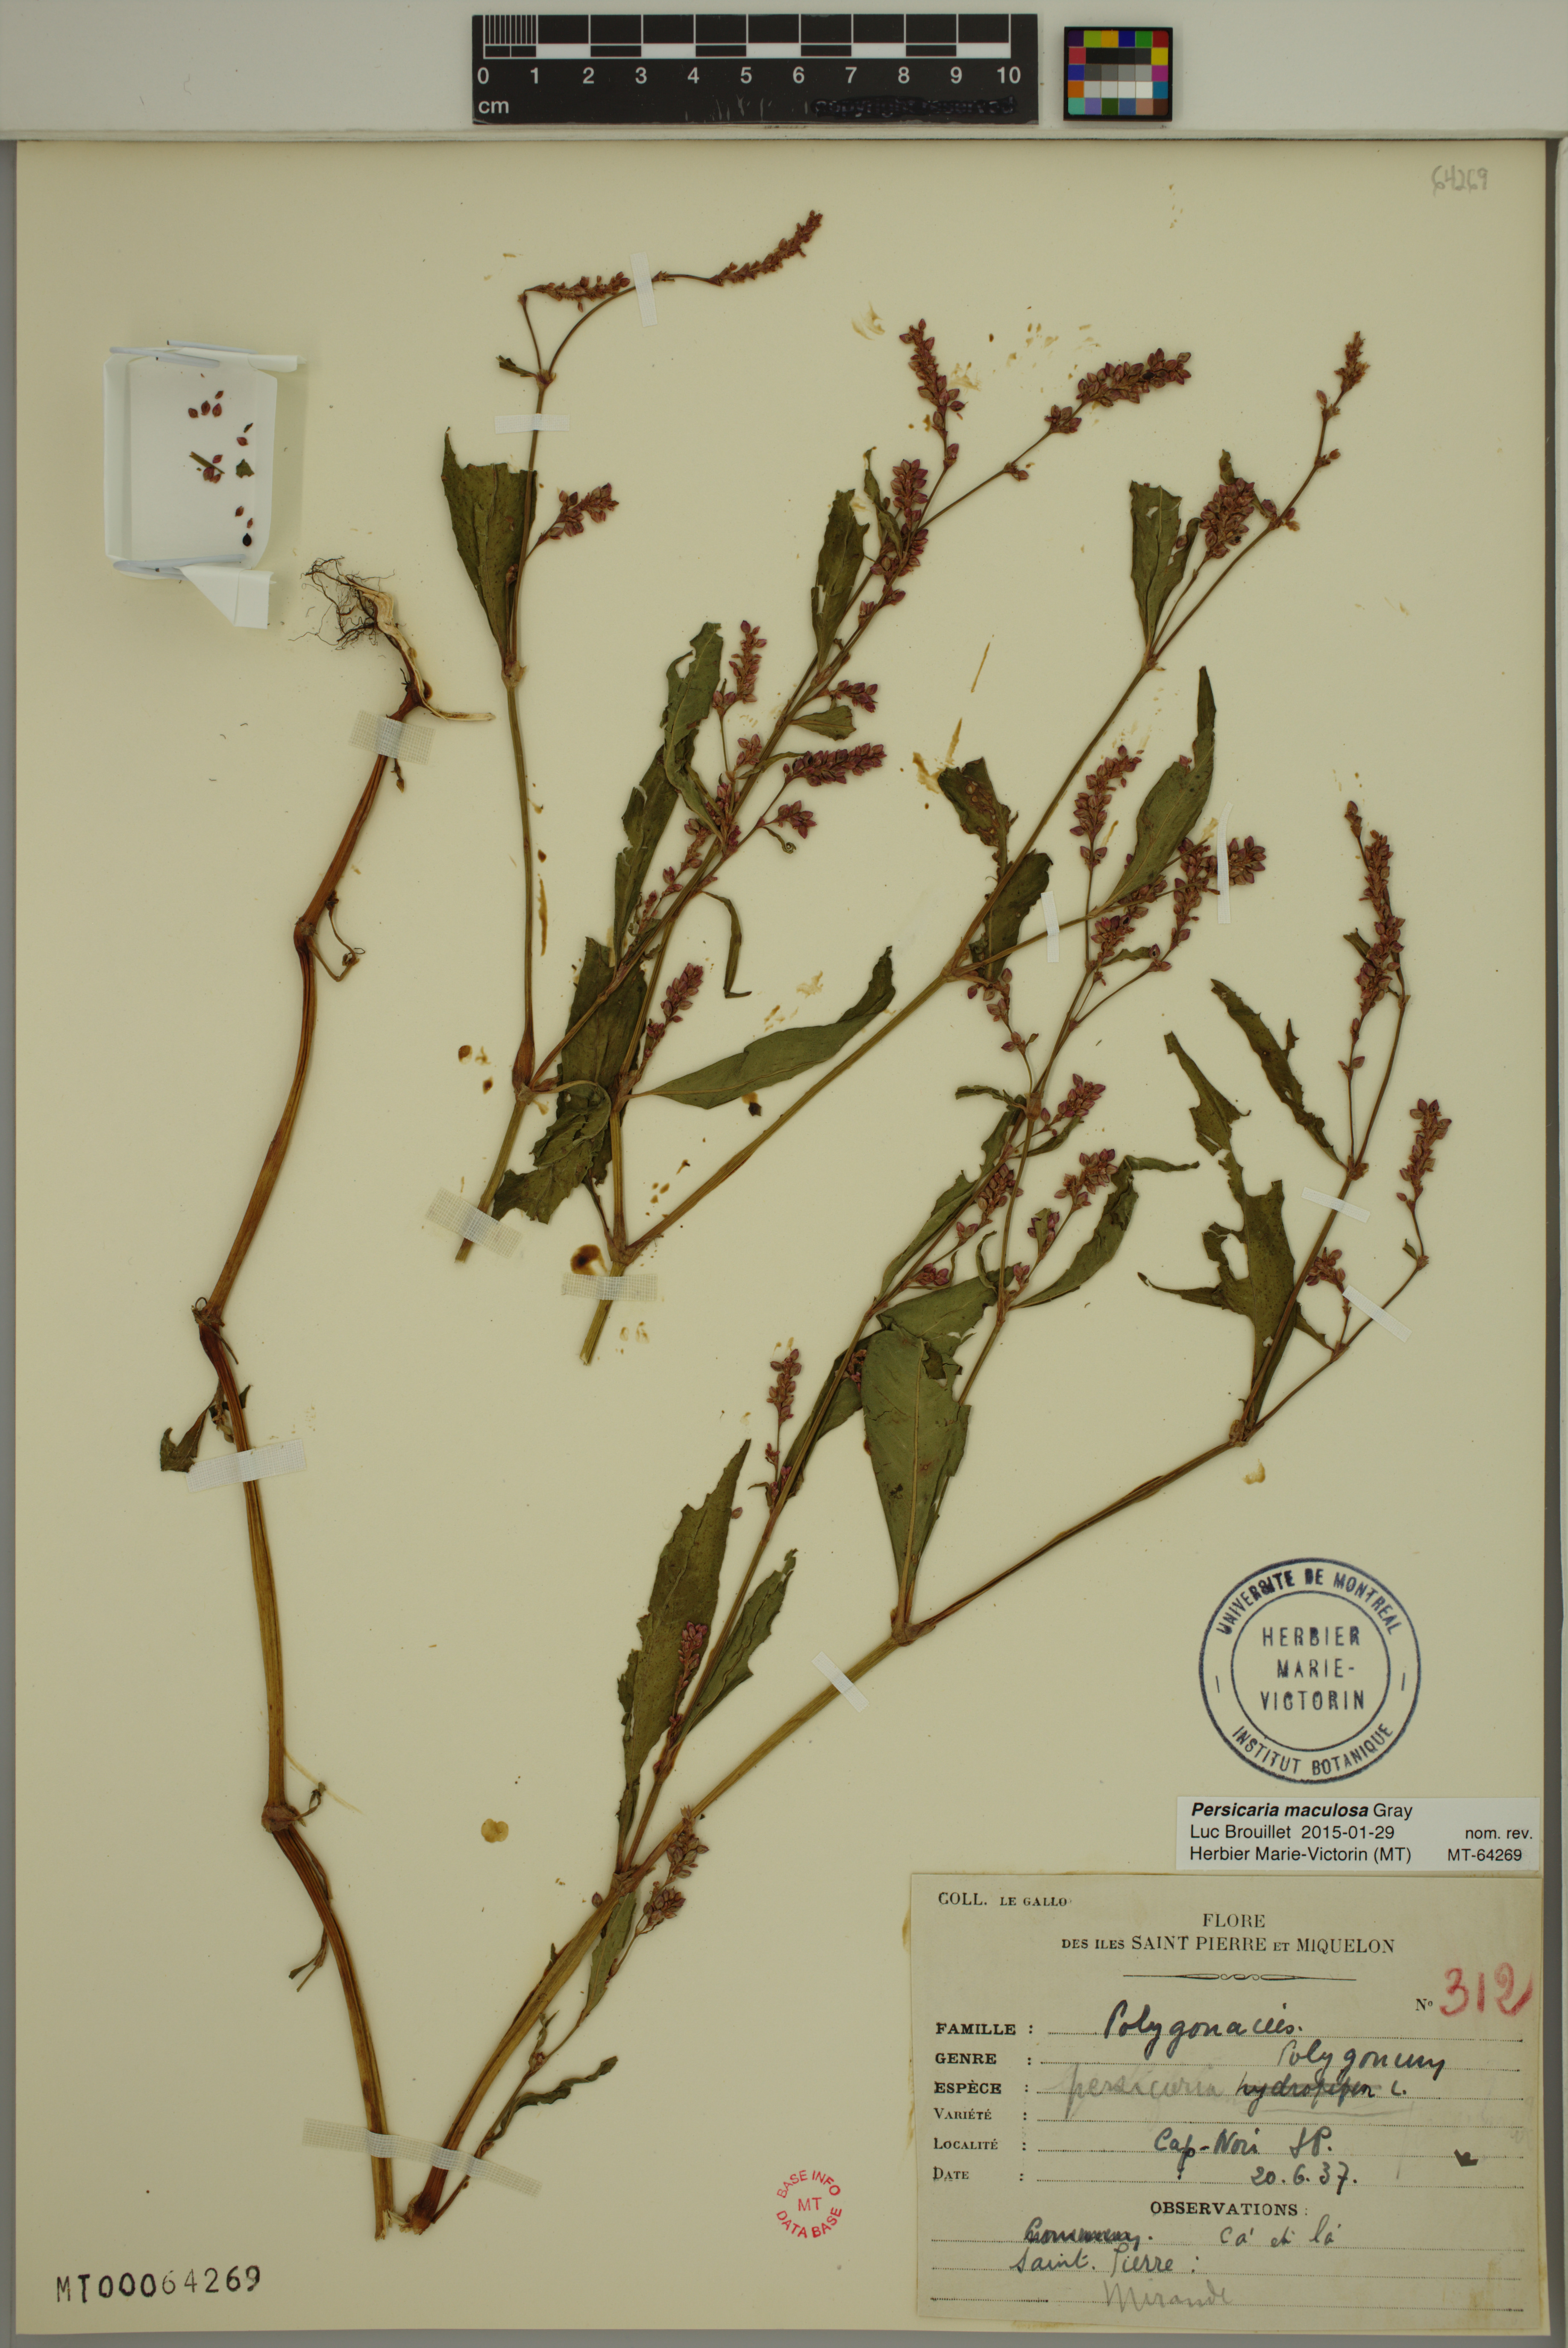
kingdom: Plantae
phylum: Tracheophyta
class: Magnoliopsida
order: Caryophyllales
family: Polygonaceae
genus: Persicaria
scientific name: Persicaria maculosa
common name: Redshank
